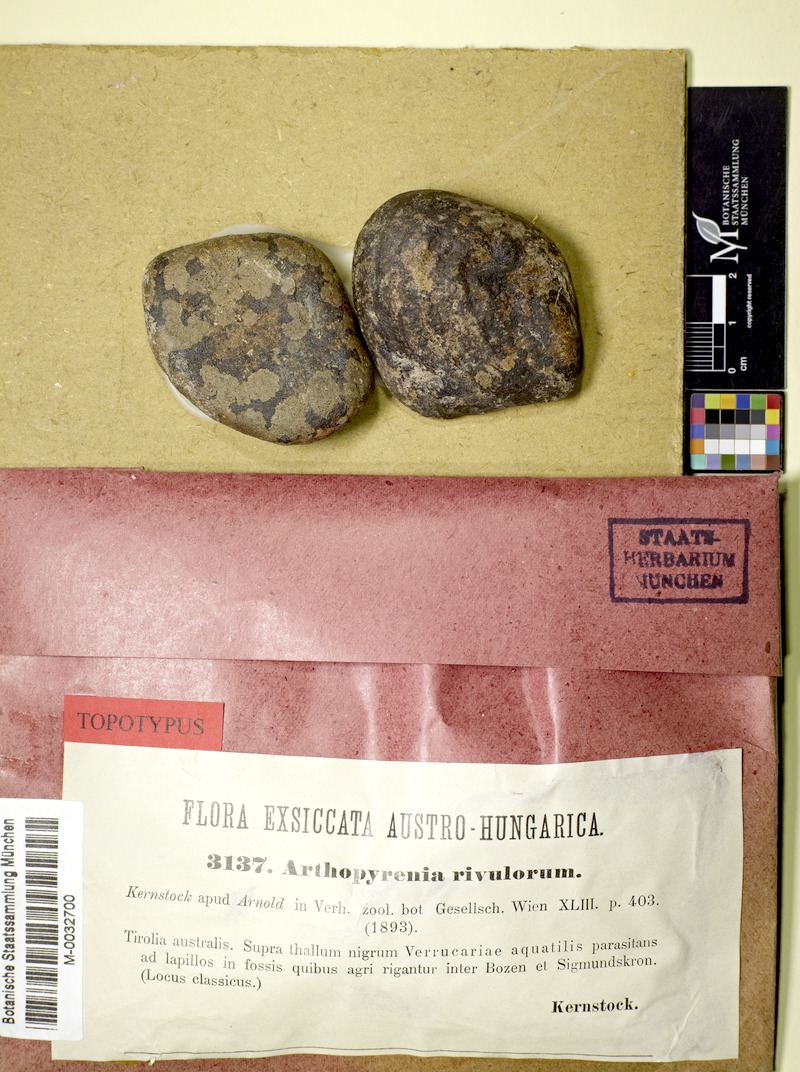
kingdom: Fungi
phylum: Ascomycota
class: Dothideomycetes
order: Mycosphaerellales
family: Mycosphaerellaceae
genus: Stigmidium
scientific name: Stigmidium rivulorum
